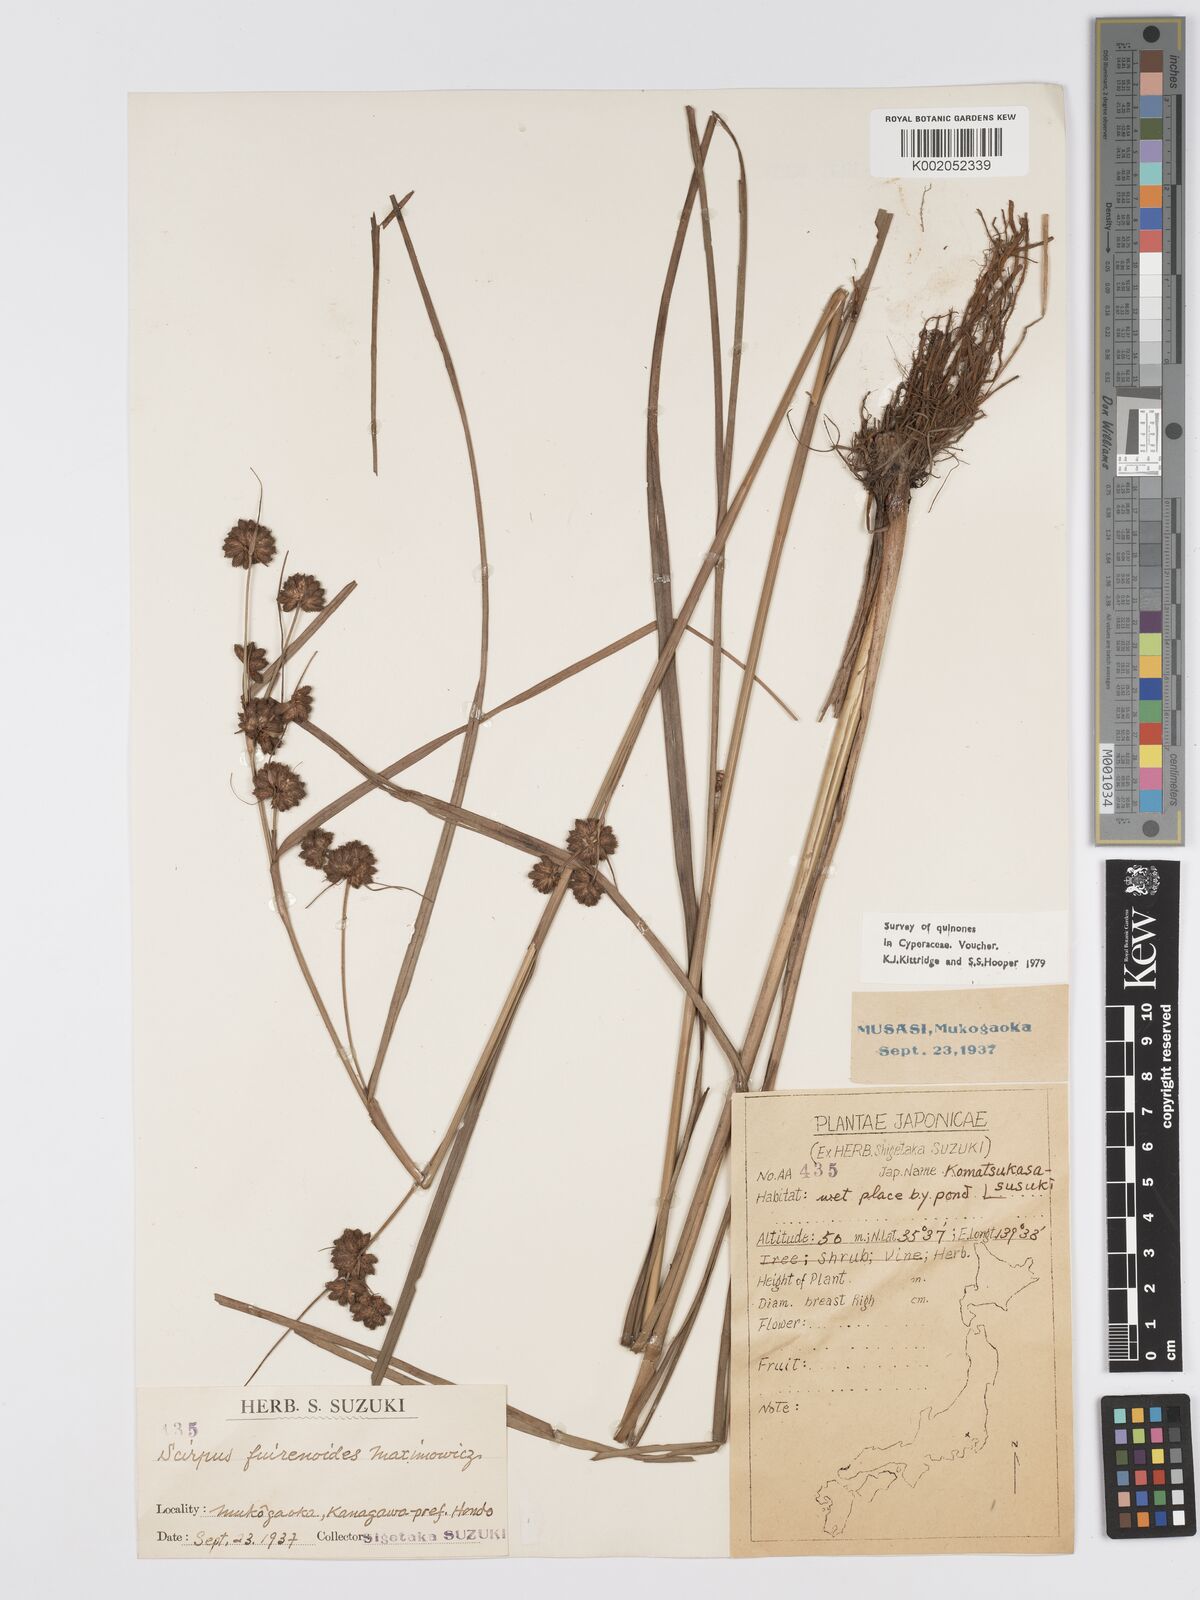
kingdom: Plantae
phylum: Tracheophyta
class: Liliopsida
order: Poales
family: Cyperaceae
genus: Scirpus
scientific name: Scirpus fuirenoides
